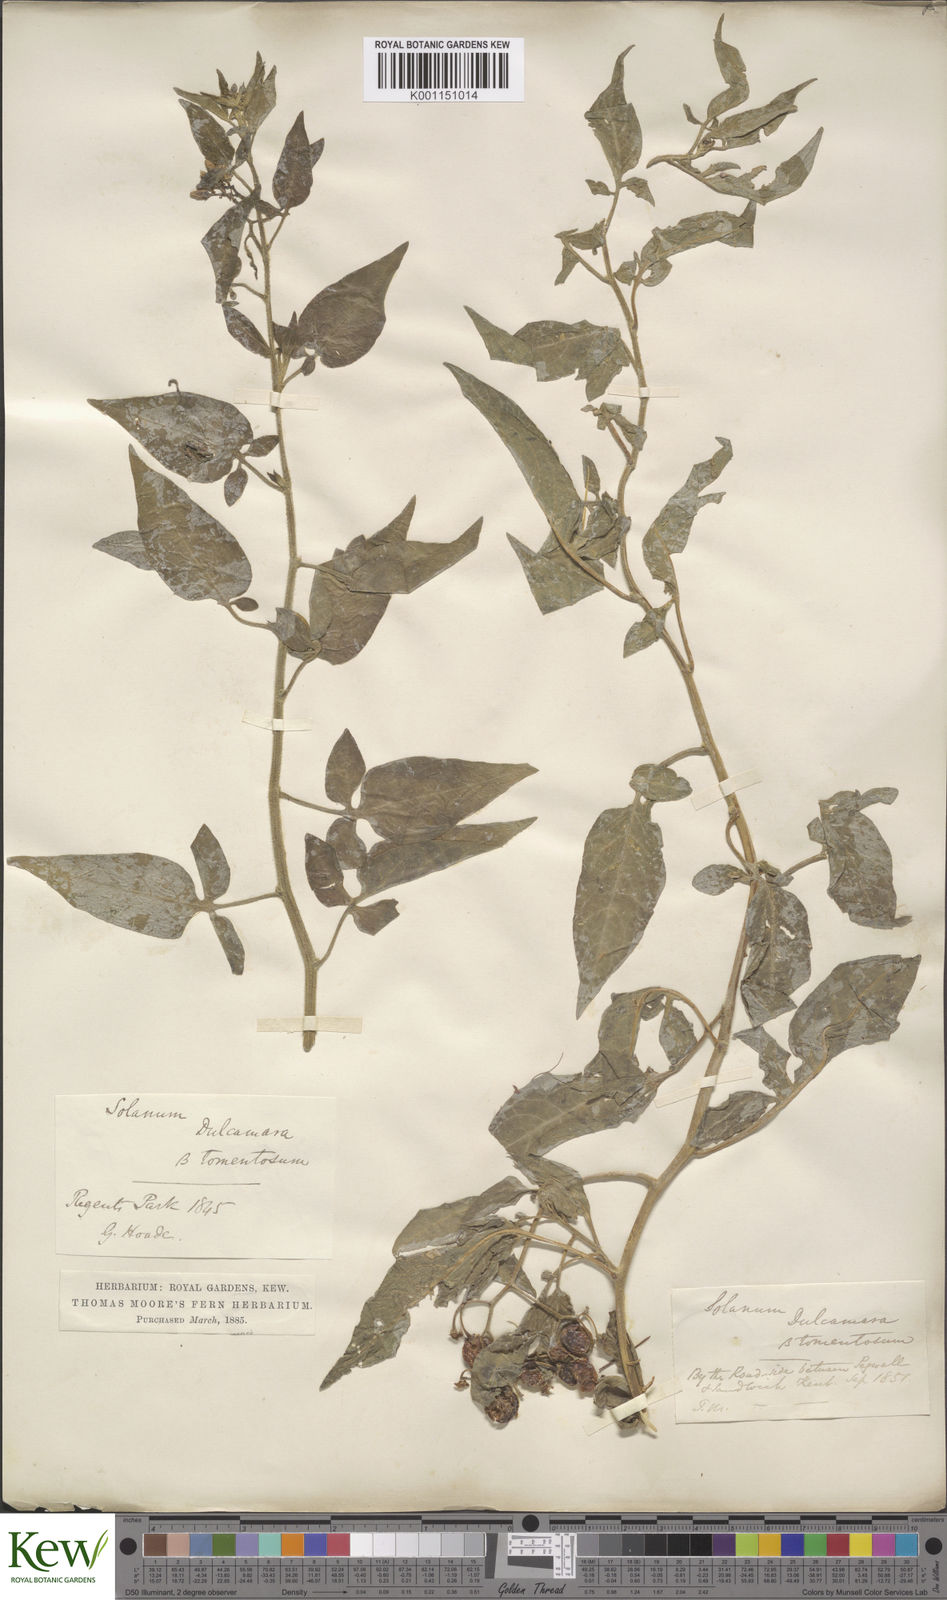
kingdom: Plantae
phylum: Tracheophyta
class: Magnoliopsida
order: Solanales
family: Solanaceae
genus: Solanum
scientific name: Solanum dulcamara
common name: Climbing nightshade
